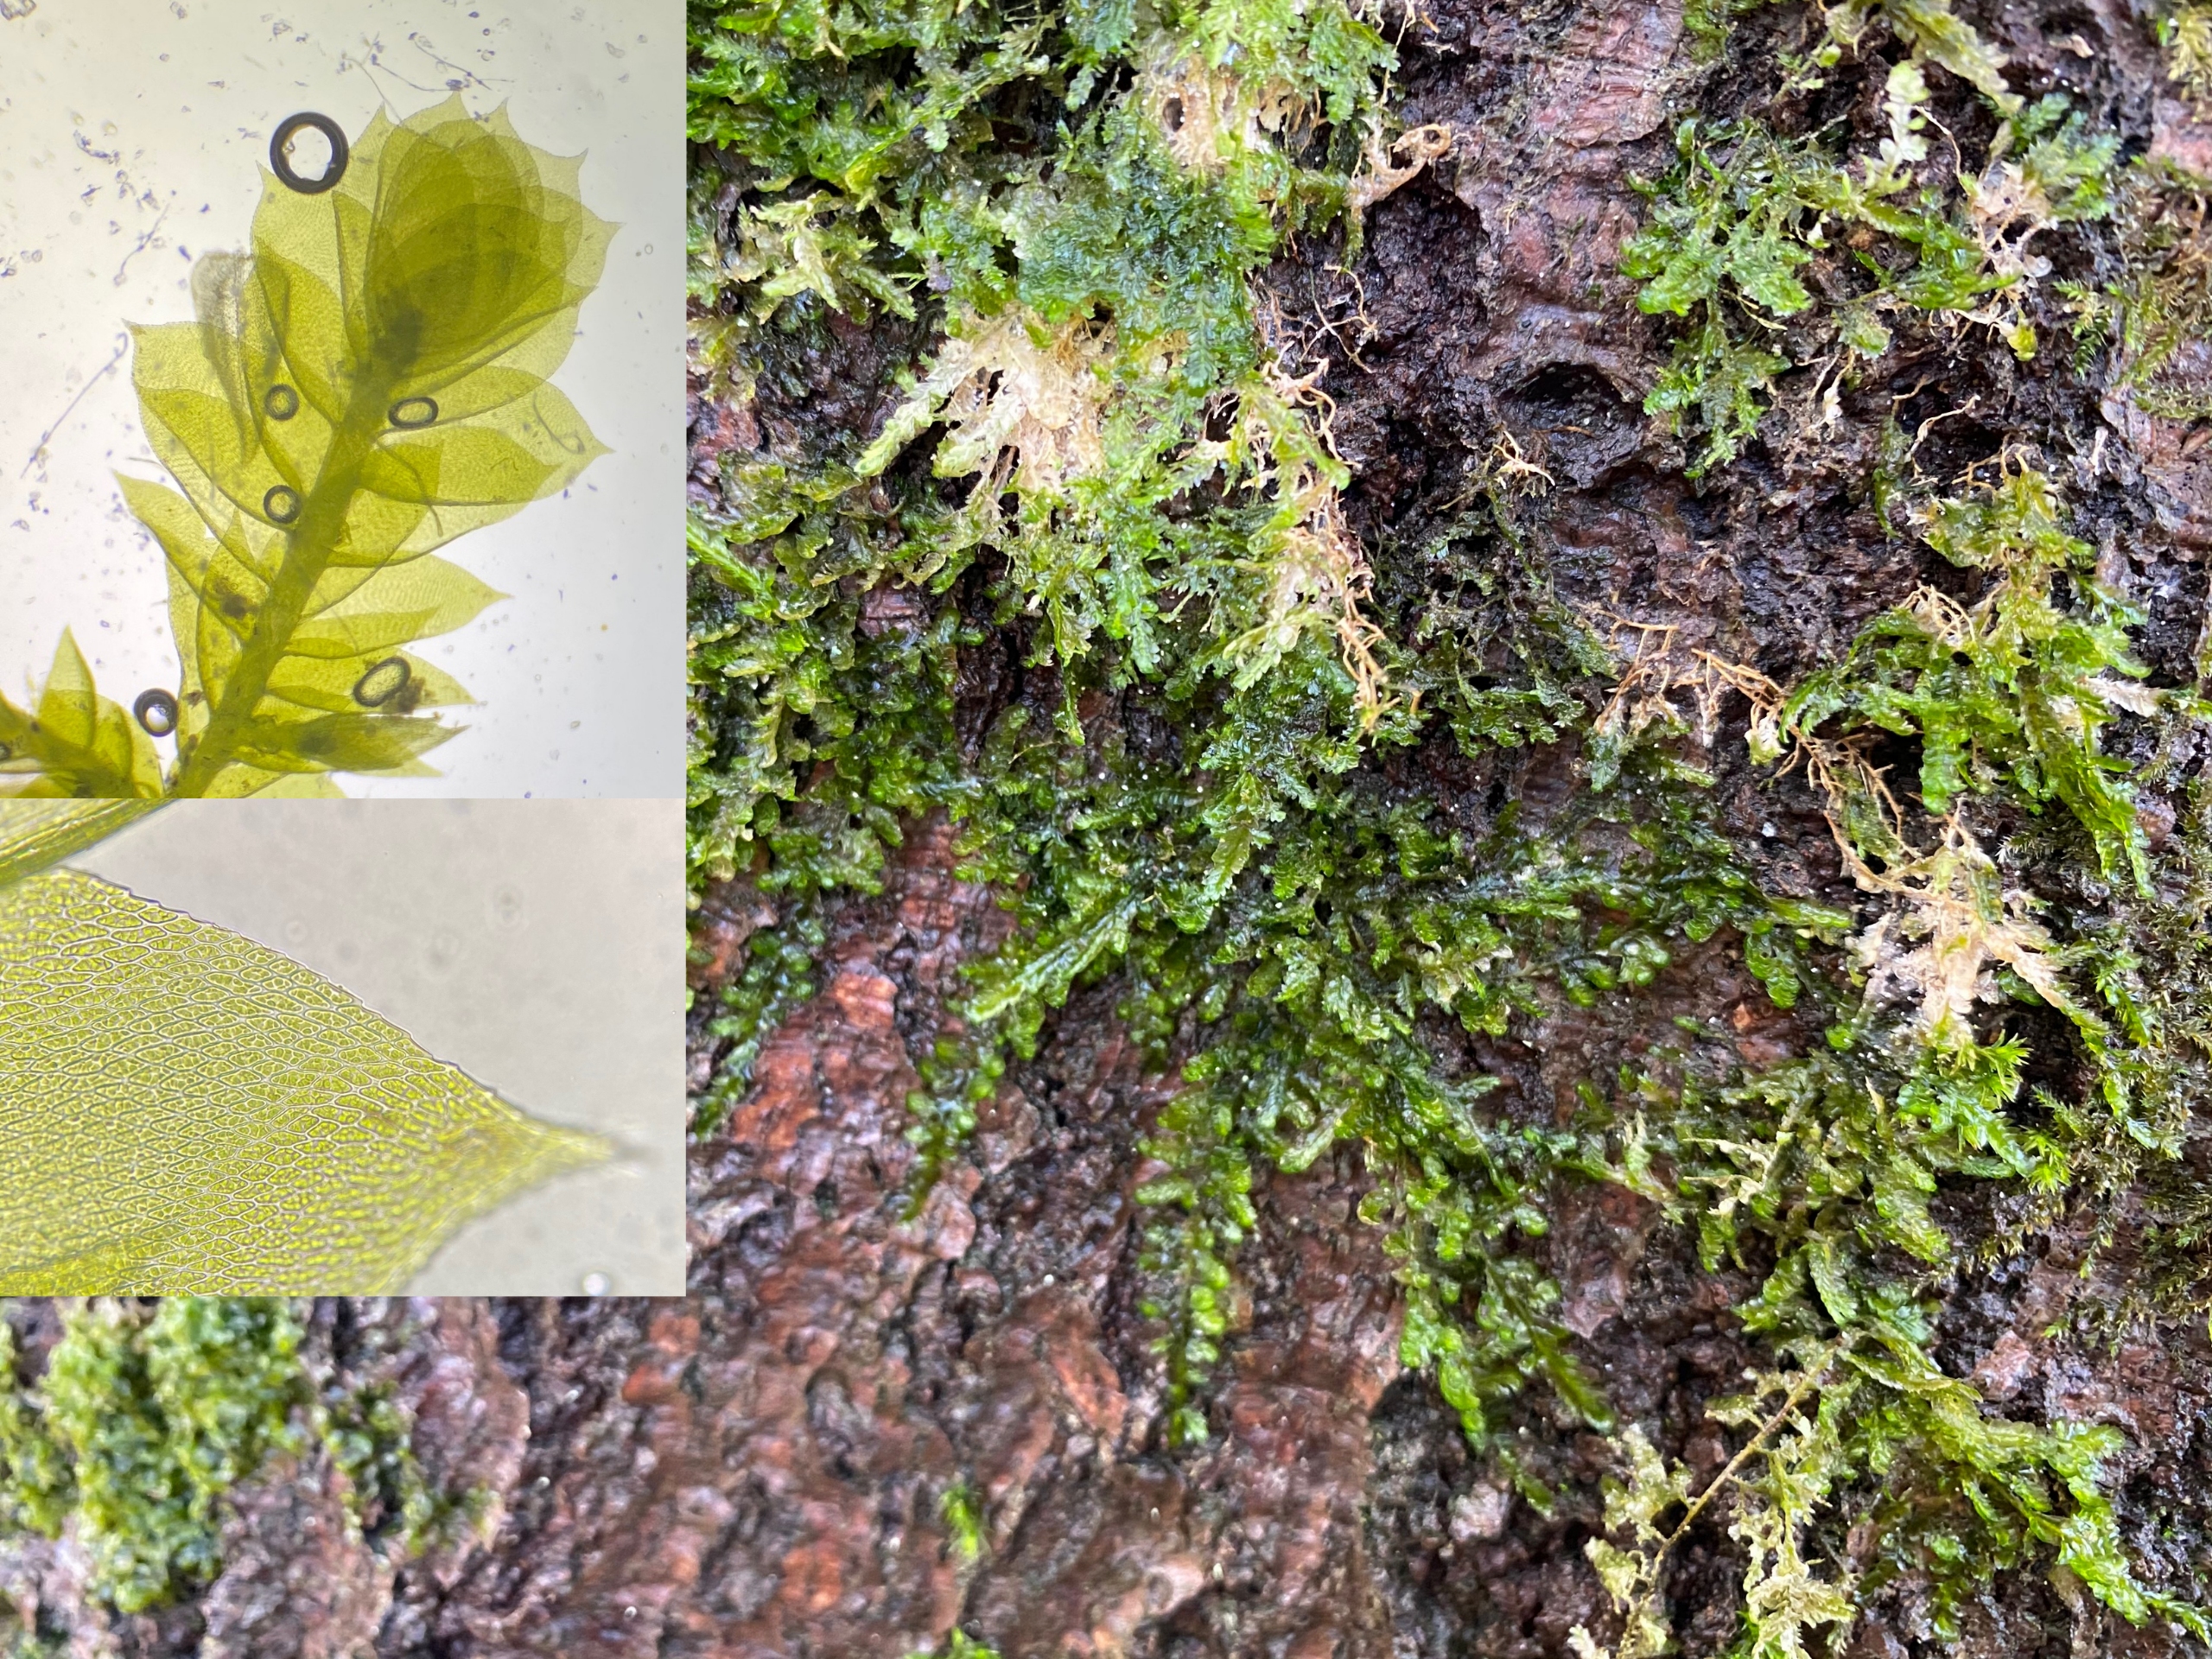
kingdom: Plantae
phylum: Bryophyta
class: Bryopsida
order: Hypnales
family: Neckeraceae
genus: Alleniella
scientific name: Alleniella complanata
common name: Almindelig fladmos
